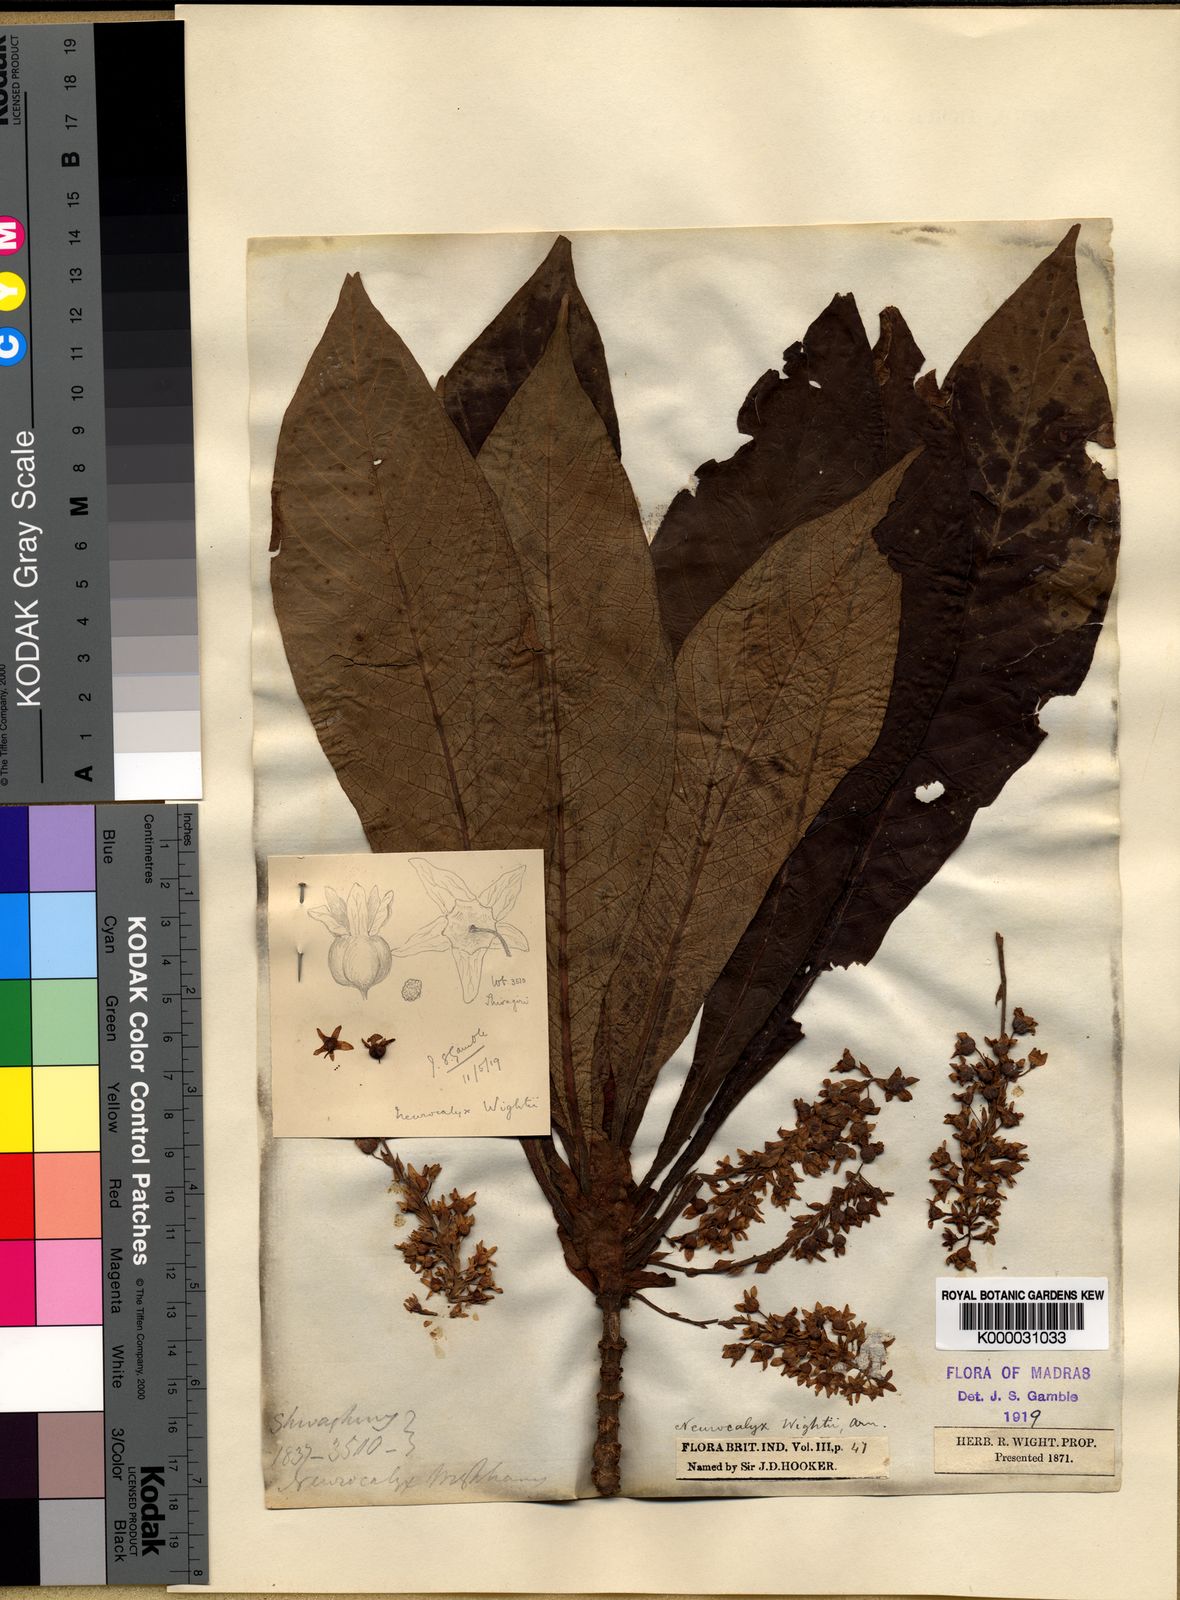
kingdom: Plantae
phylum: Tracheophyta
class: Magnoliopsida
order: Gentianales
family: Rubiaceae
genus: Neurocalyx
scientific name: Neurocalyx calycinus
